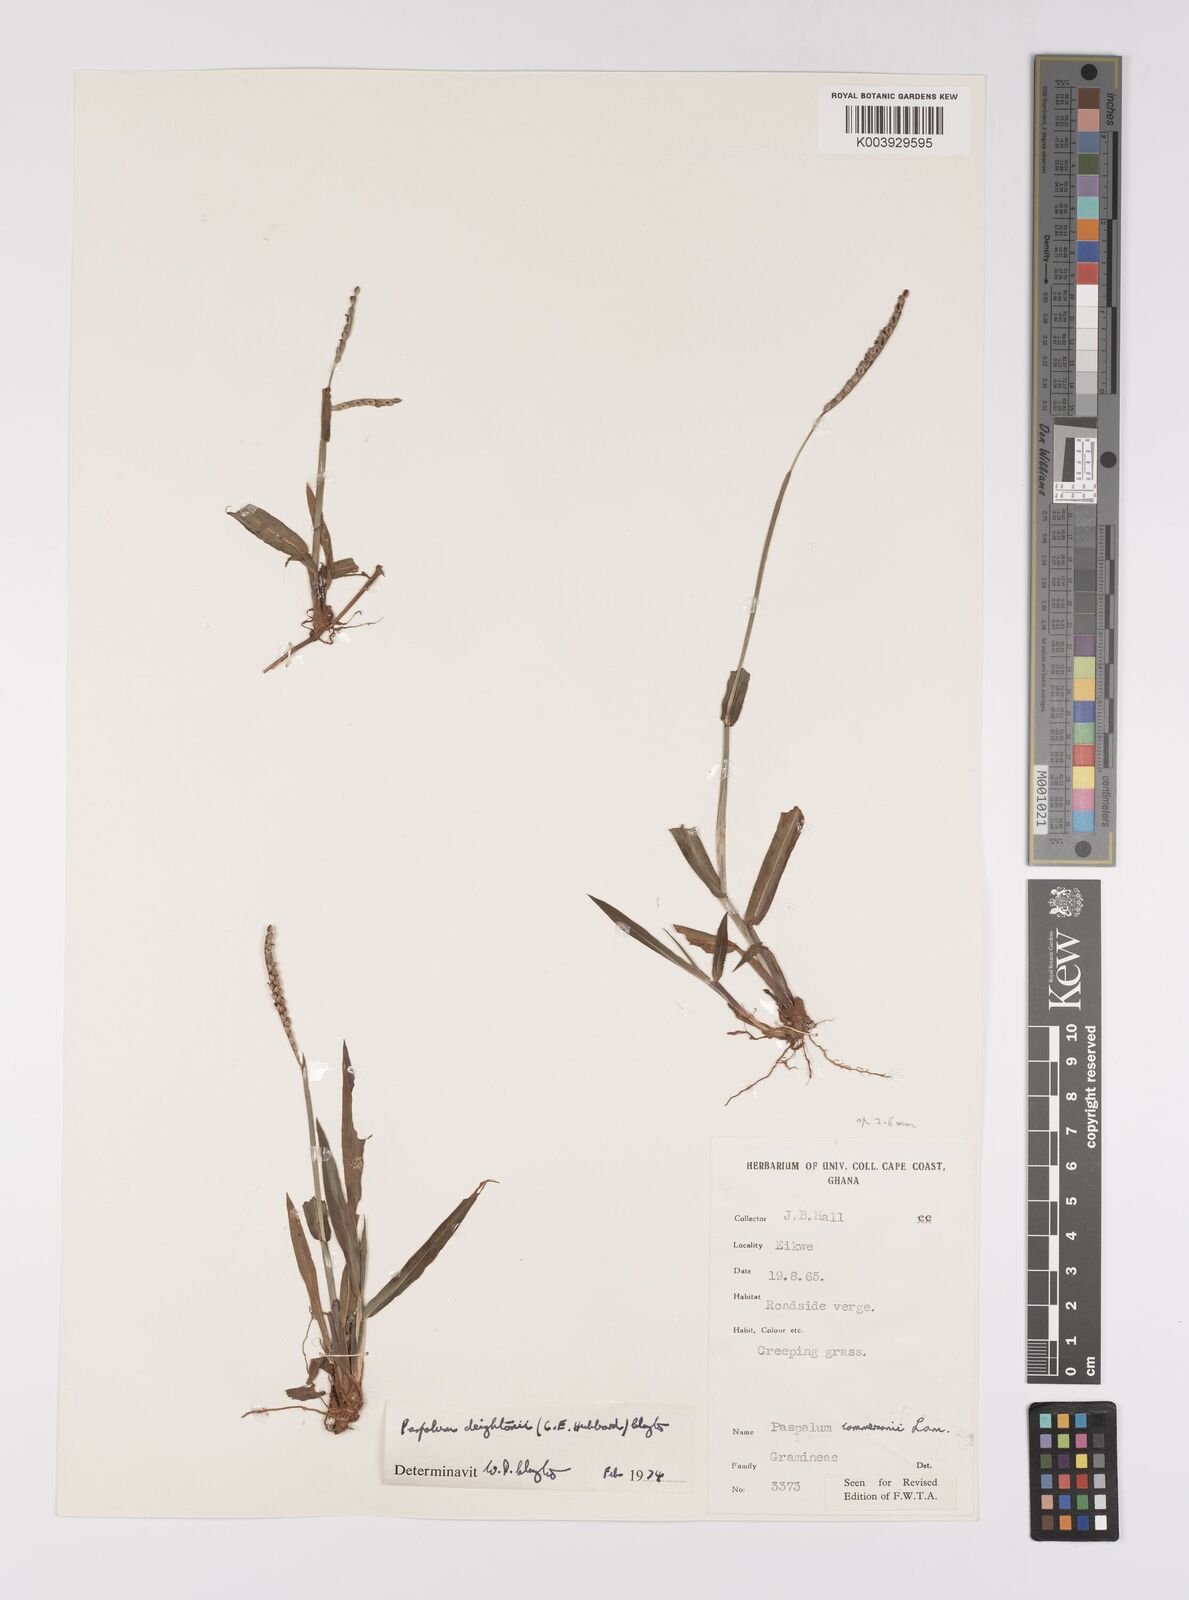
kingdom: Plantae
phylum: Tracheophyta
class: Liliopsida
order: Poales
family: Poaceae
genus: Paspalum
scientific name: Paspalum scrobiculatum
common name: Kodo millet
